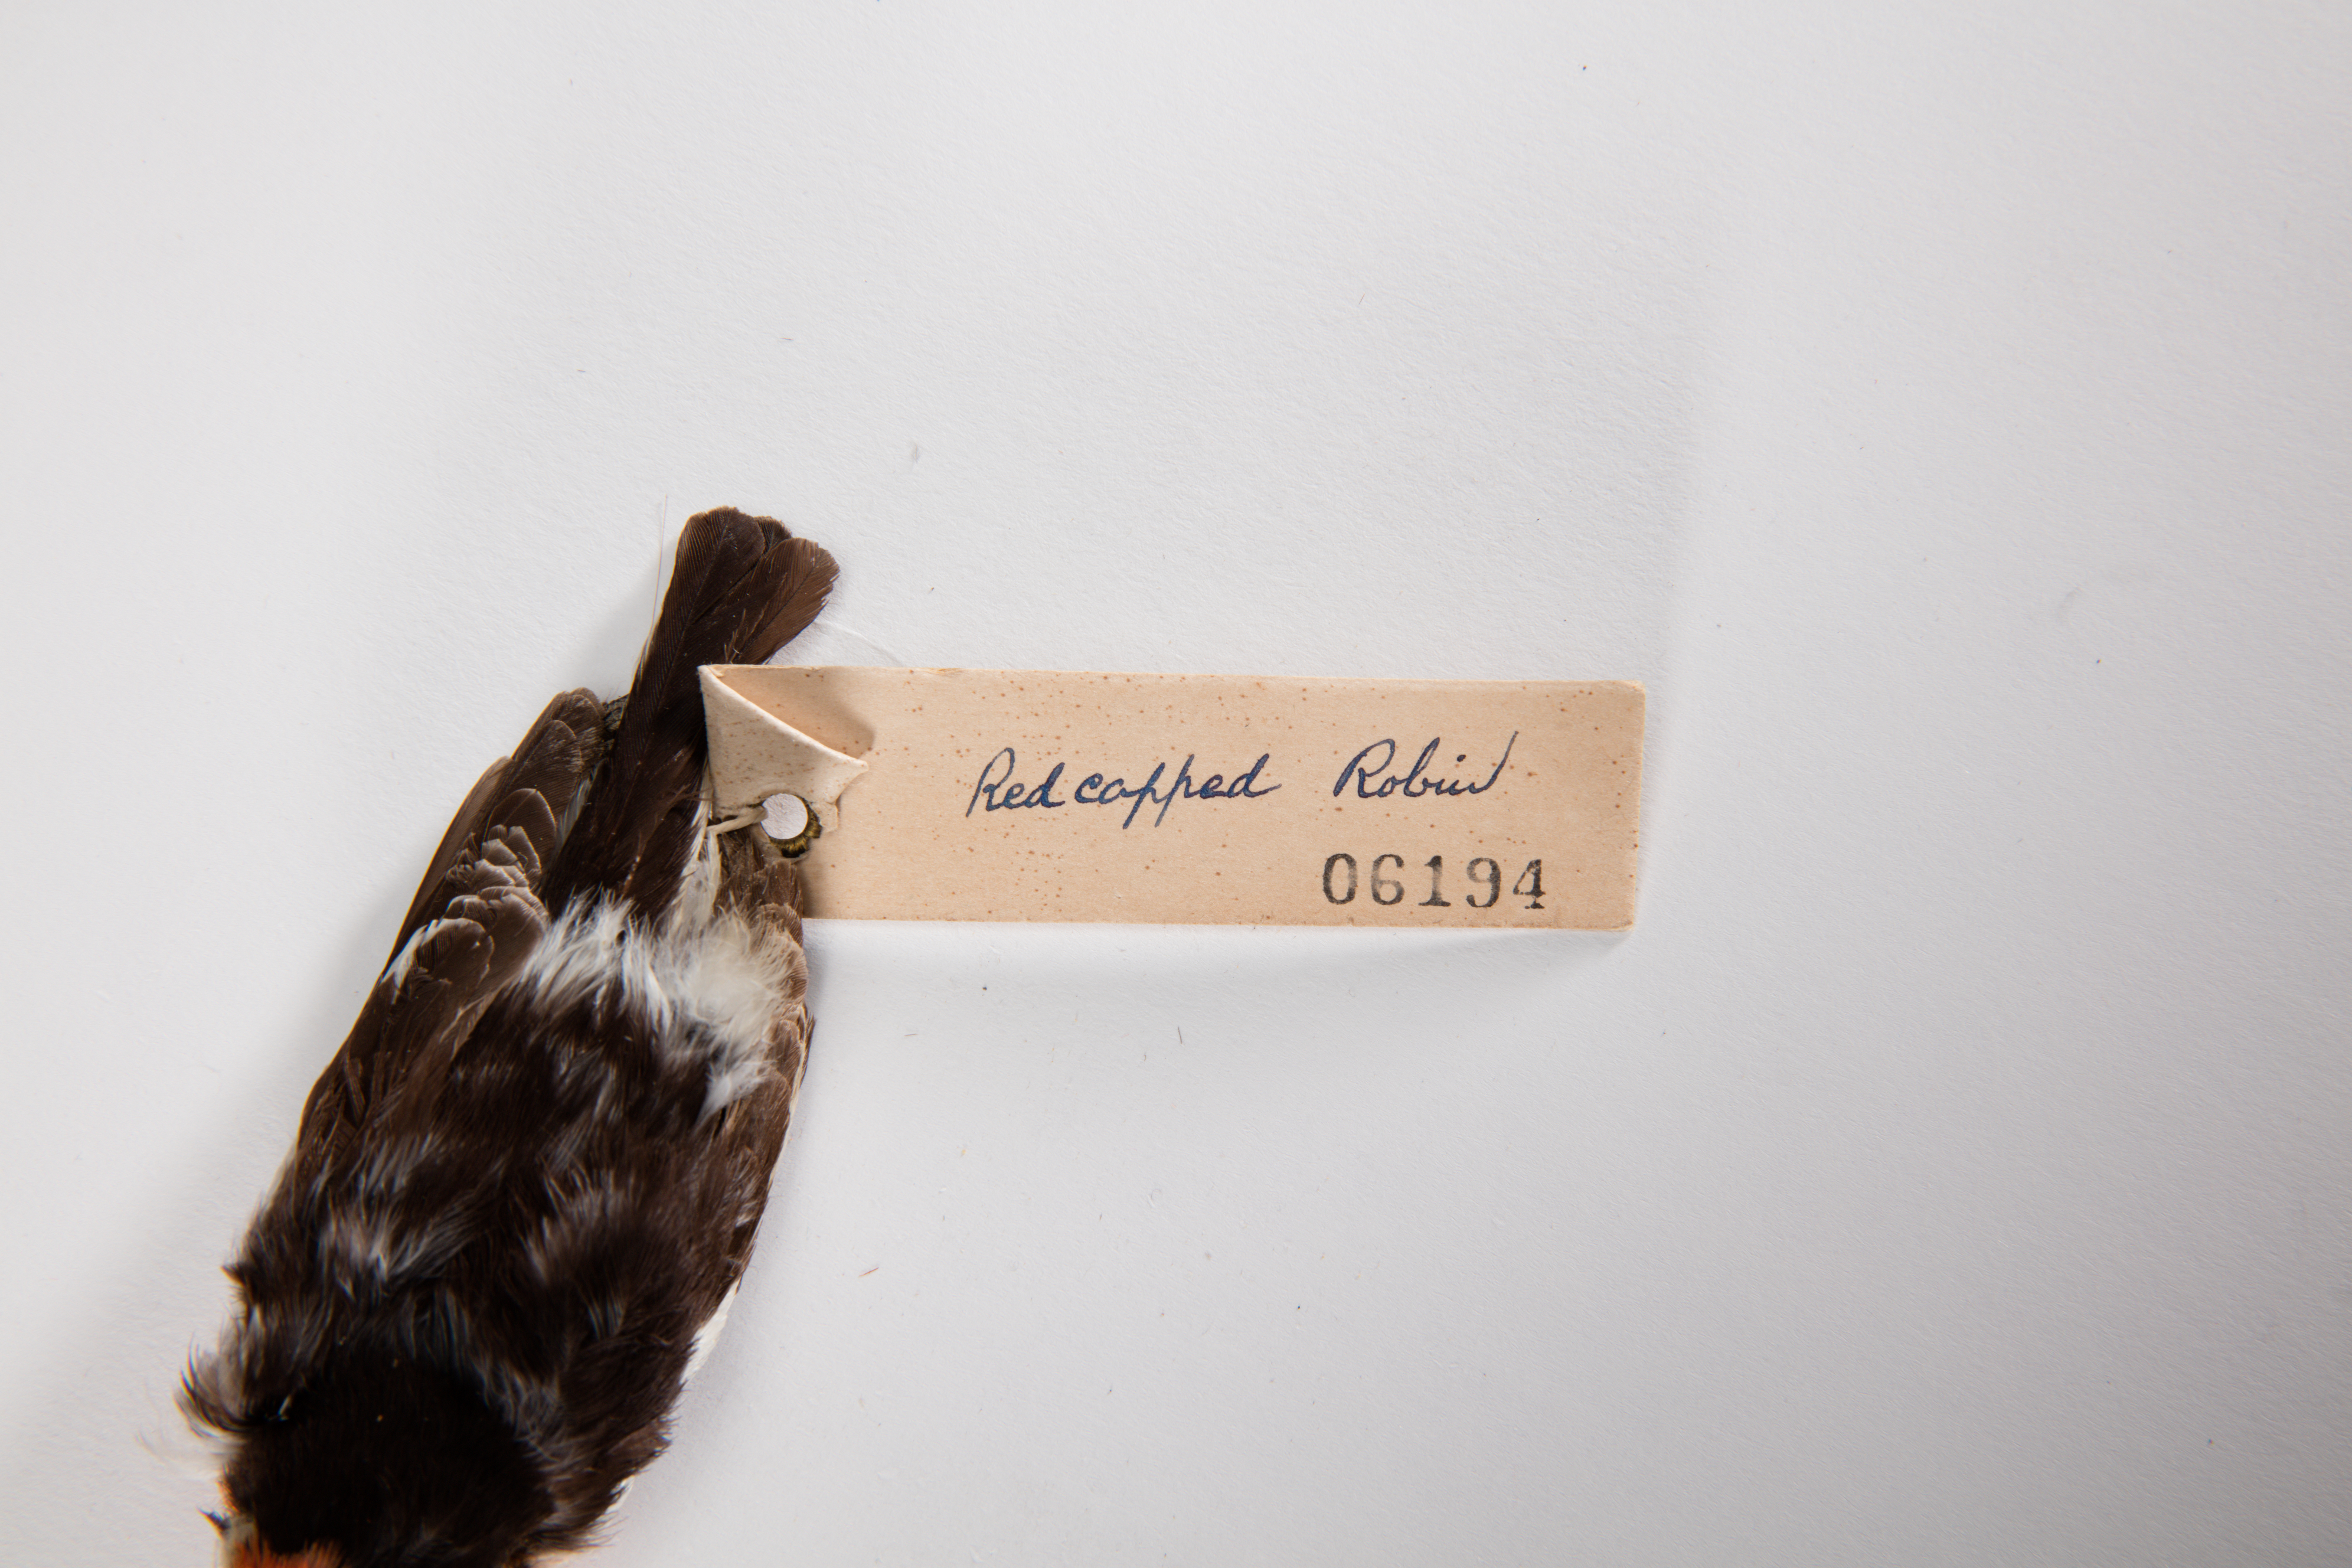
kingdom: Animalia
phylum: Chordata
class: Aves
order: Passeriformes
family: Petroicidae
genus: Petroica
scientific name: Petroica goodenovii
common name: Red-capped robin
